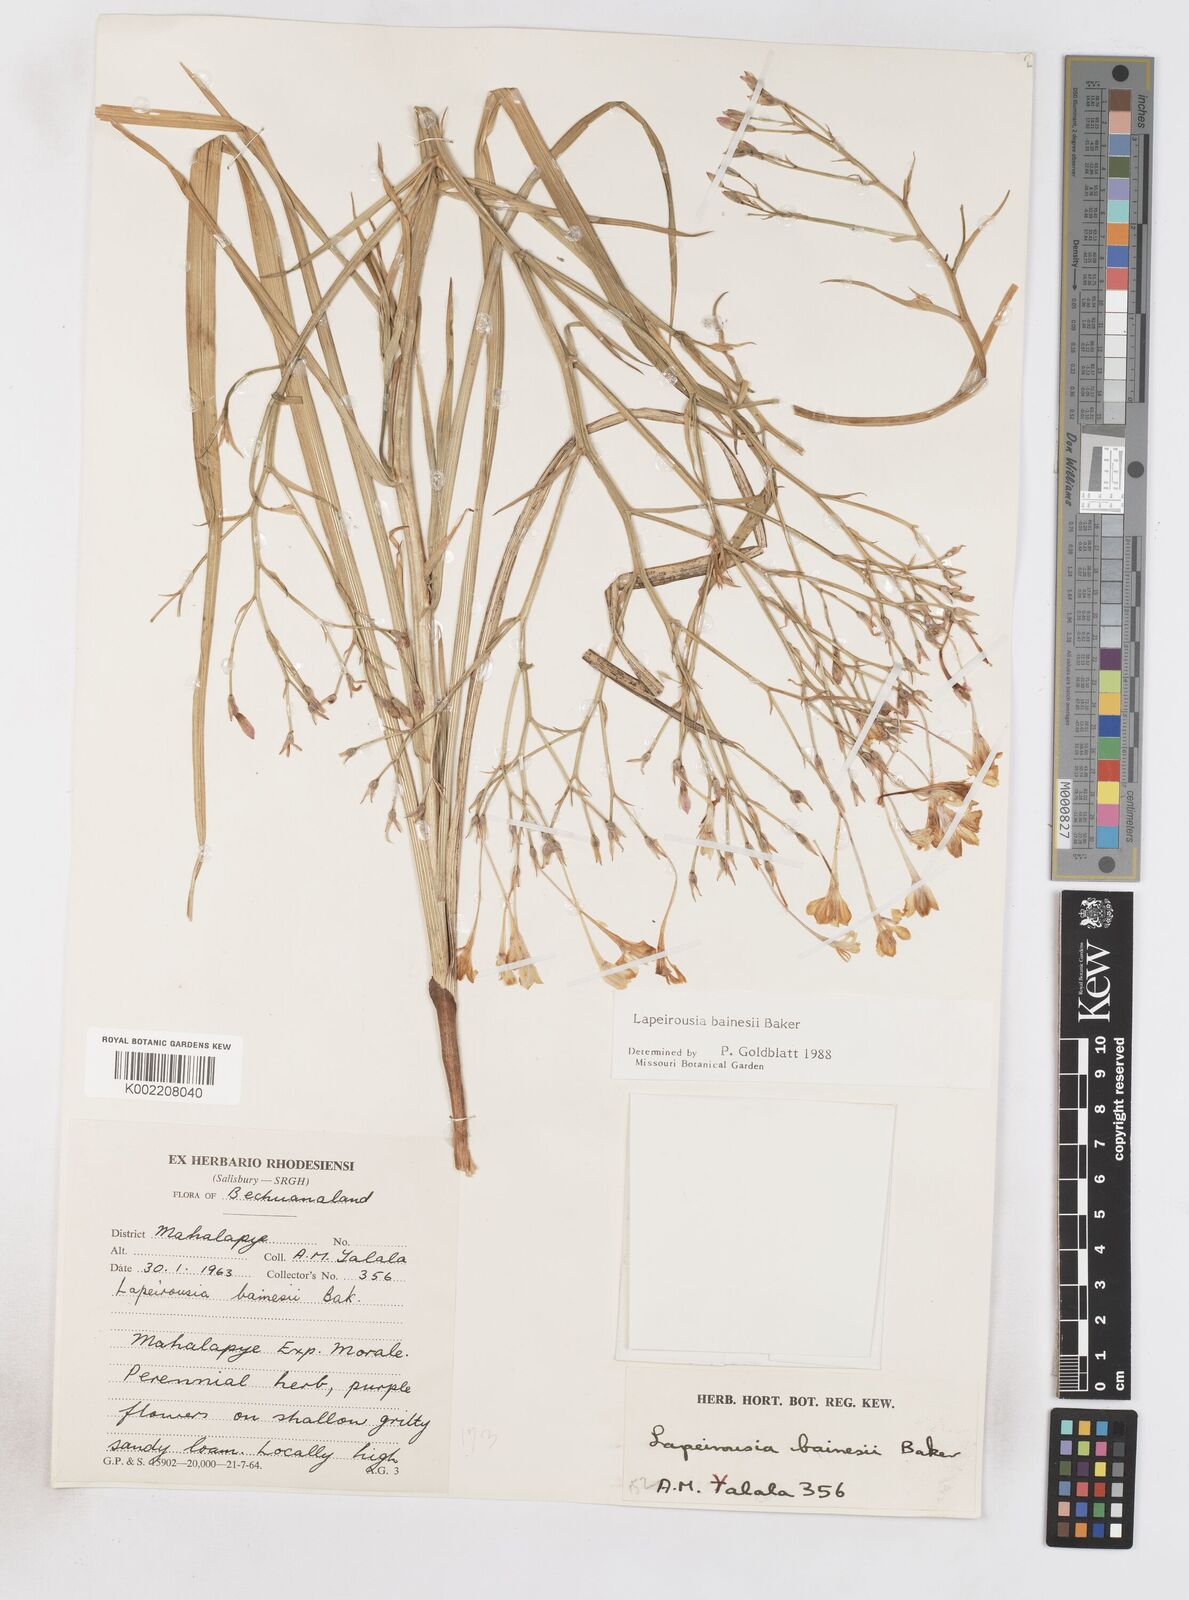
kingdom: Plantae
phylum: Tracheophyta
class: Liliopsida
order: Asparagales
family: Iridaceae
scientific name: Iridaceae
